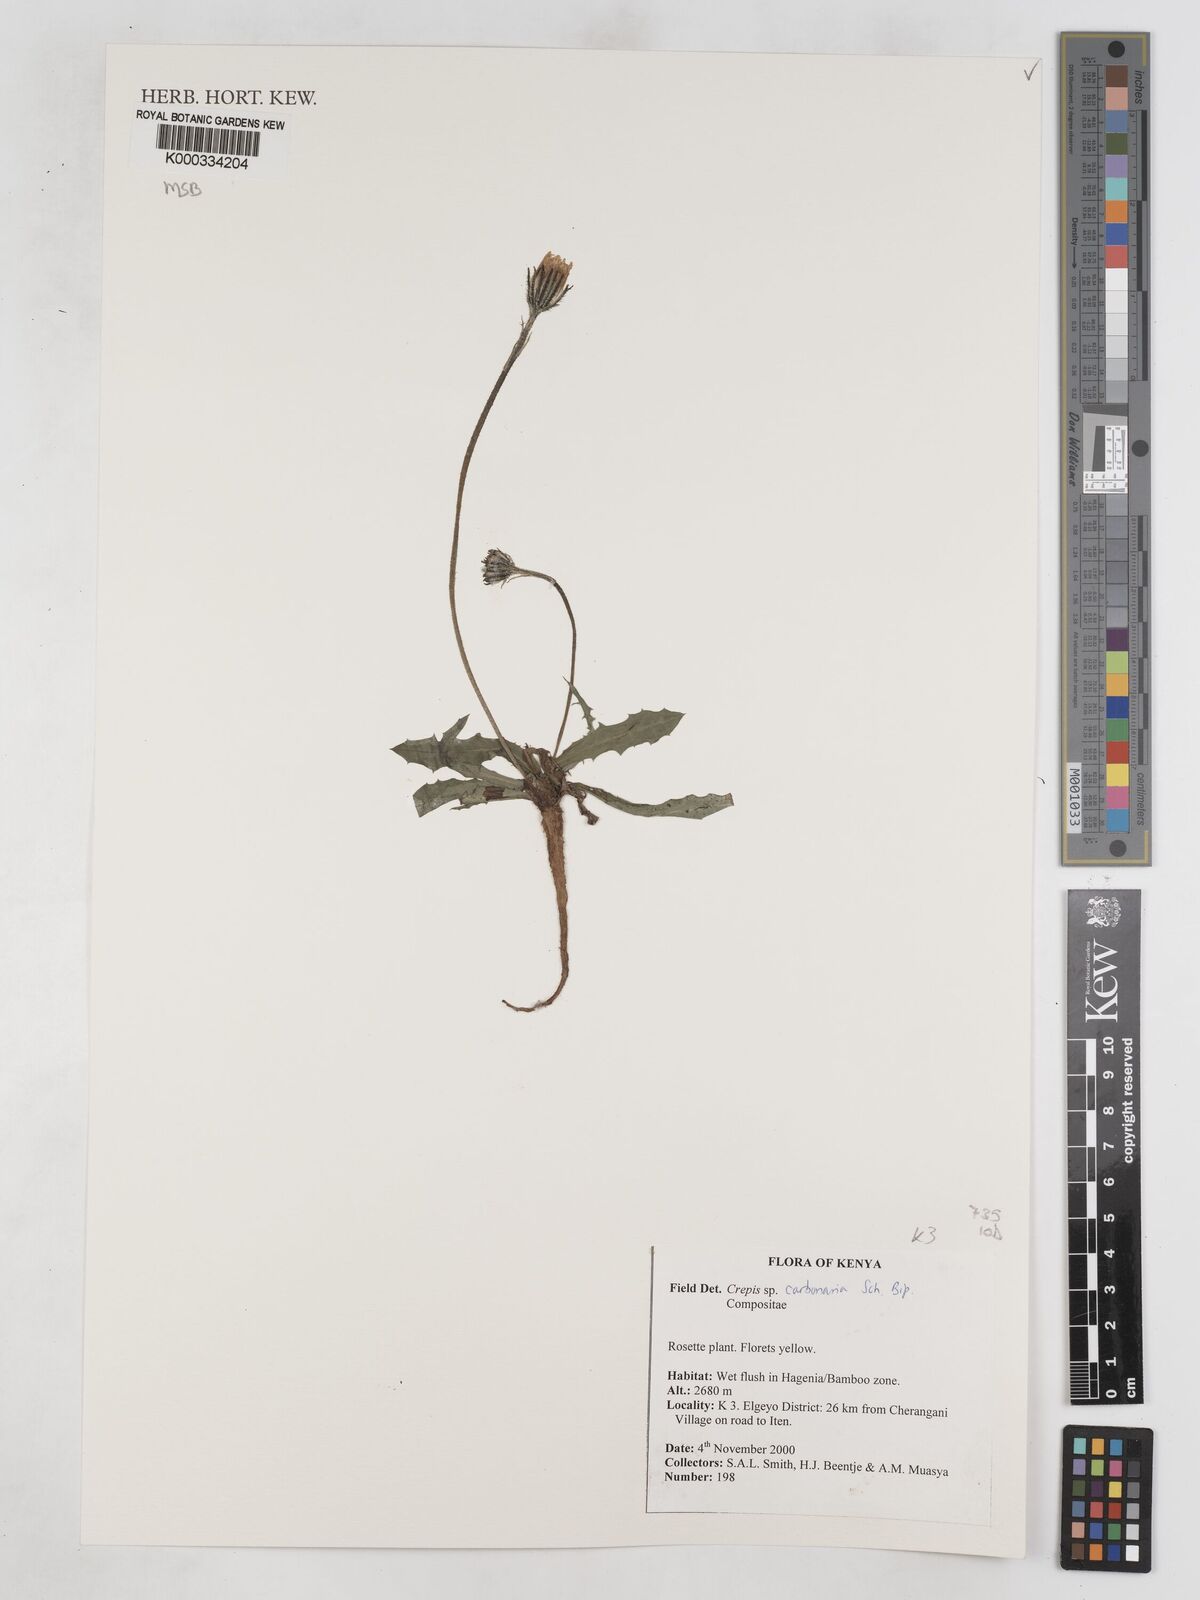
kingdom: Plantae
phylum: Tracheophyta
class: Magnoliopsida
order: Asterales
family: Asteraceae
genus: Crepis
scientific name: Crepis carbonaria
